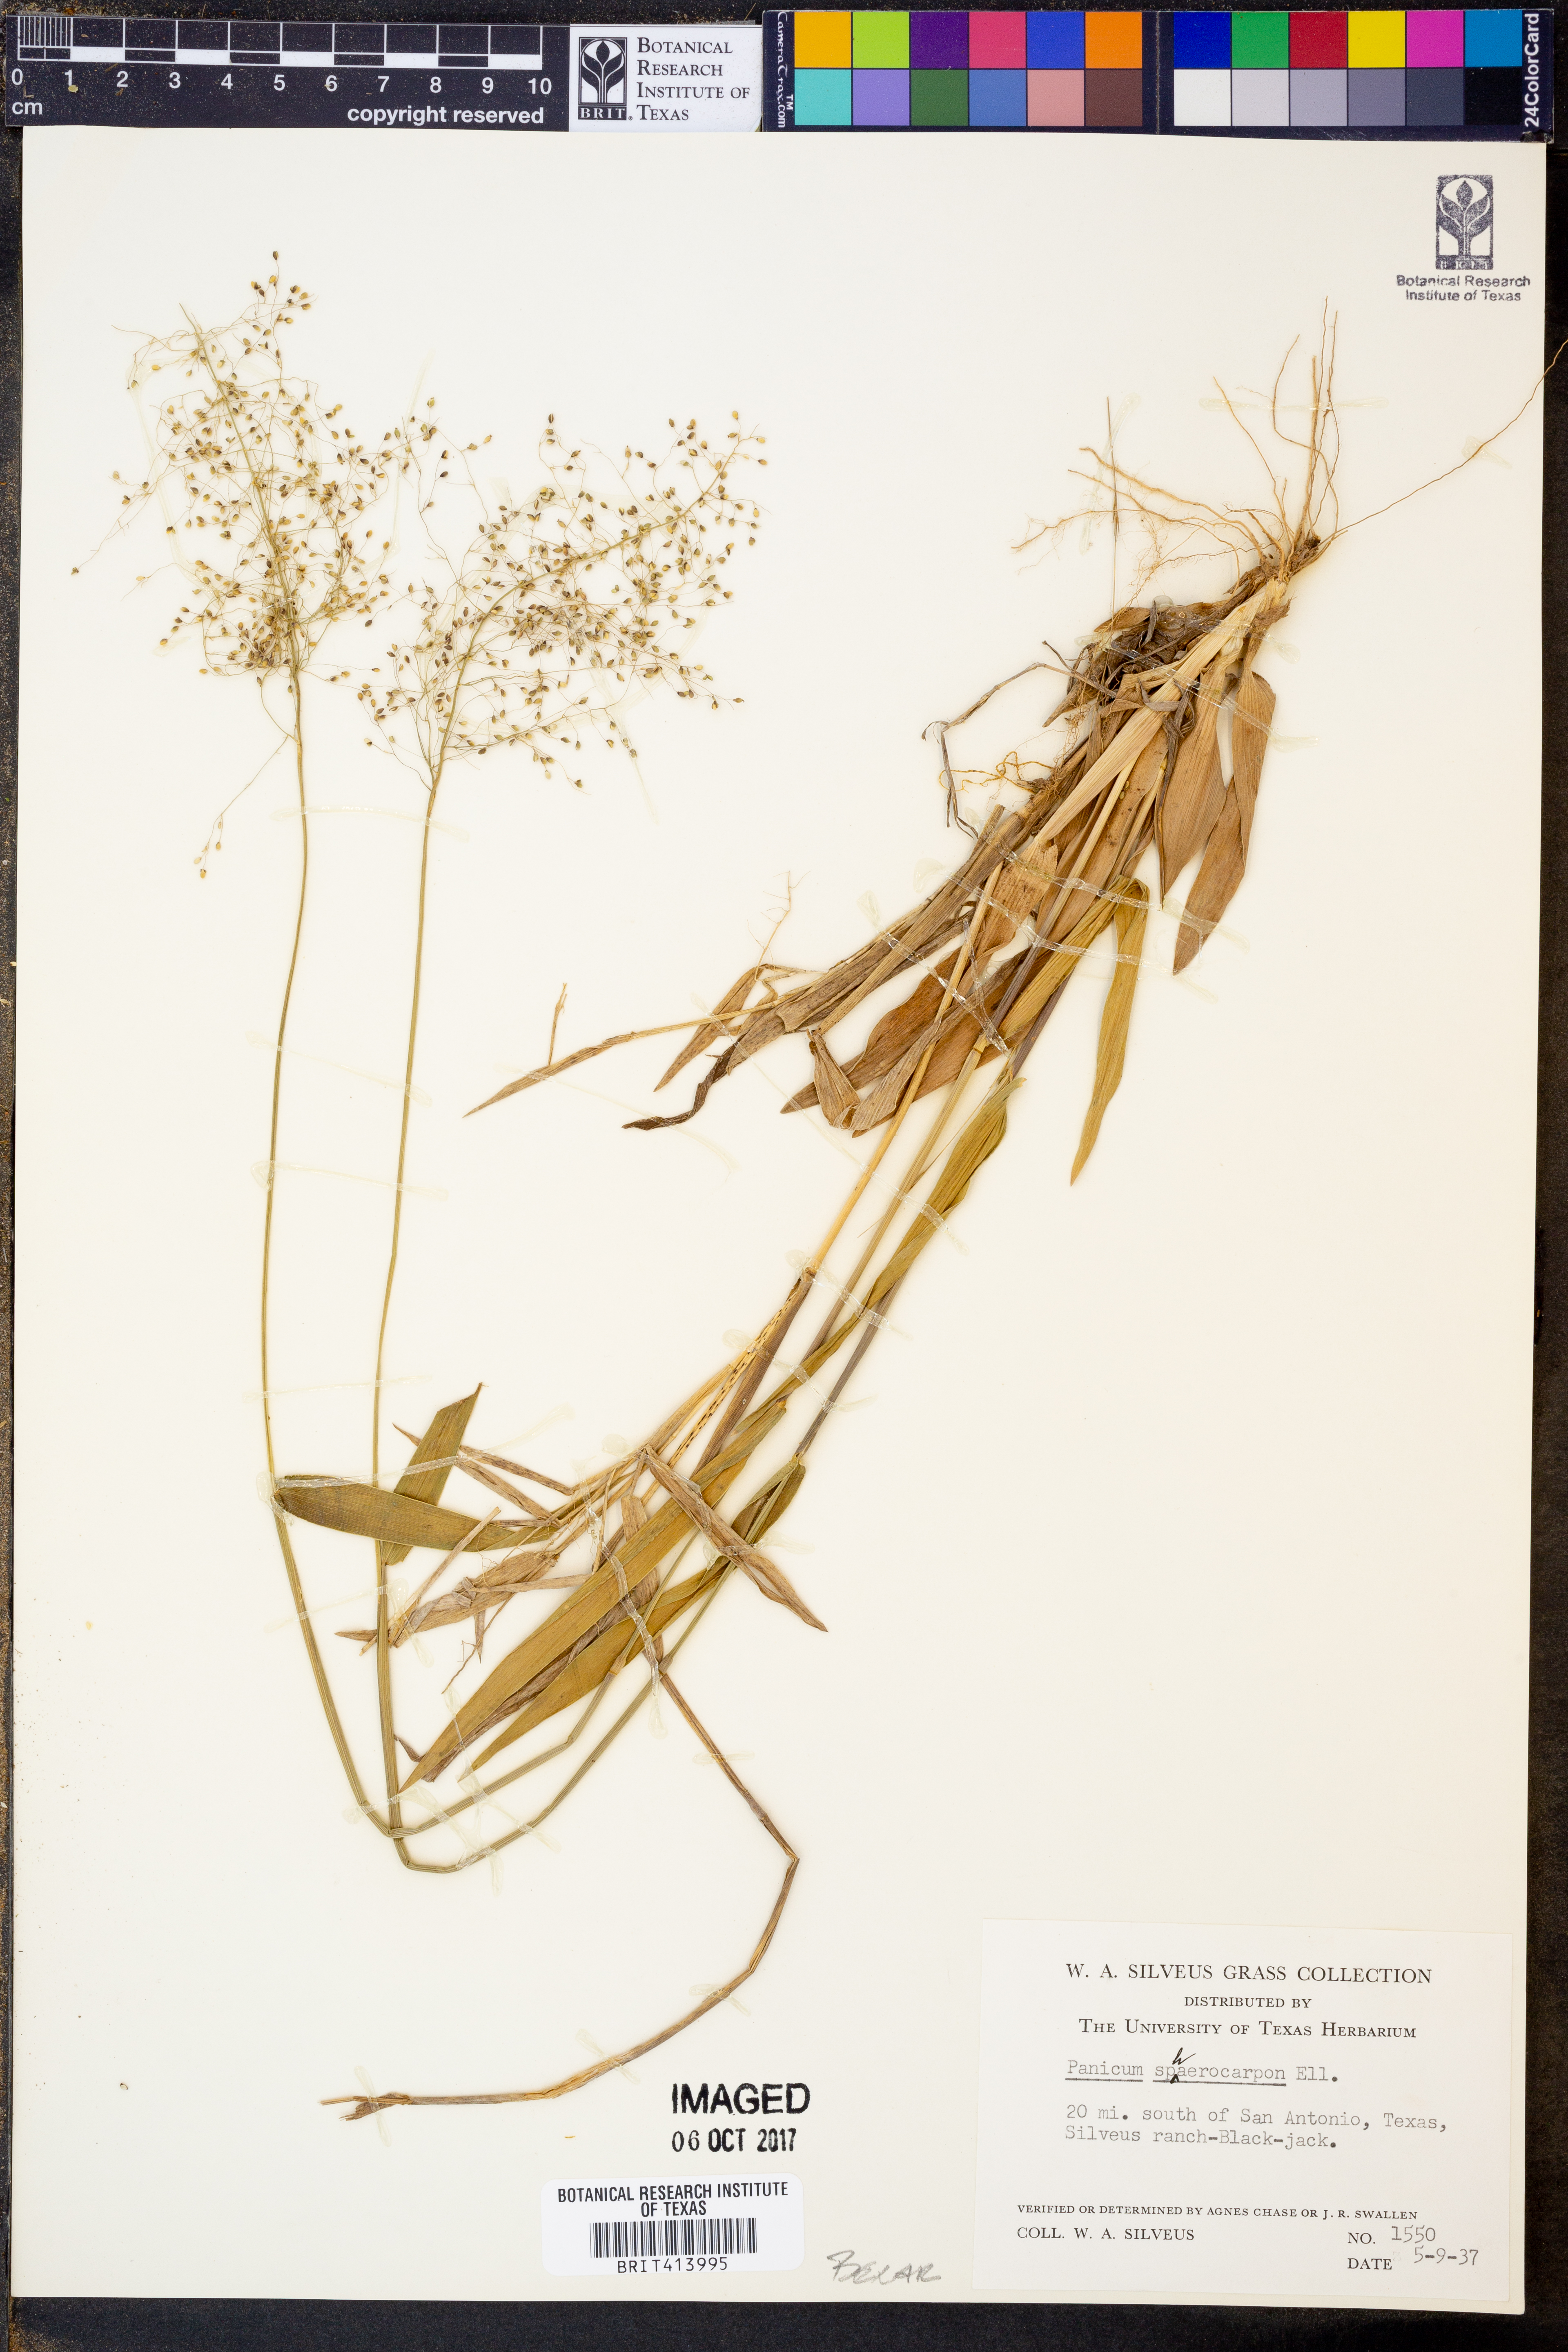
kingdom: Plantae
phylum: Tracheophyta
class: Liliopsida
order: Poales
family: Poaceae
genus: Dichanthelium
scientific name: Dichanthelium sphaerocarpon
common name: Round-fruited panicgrass
